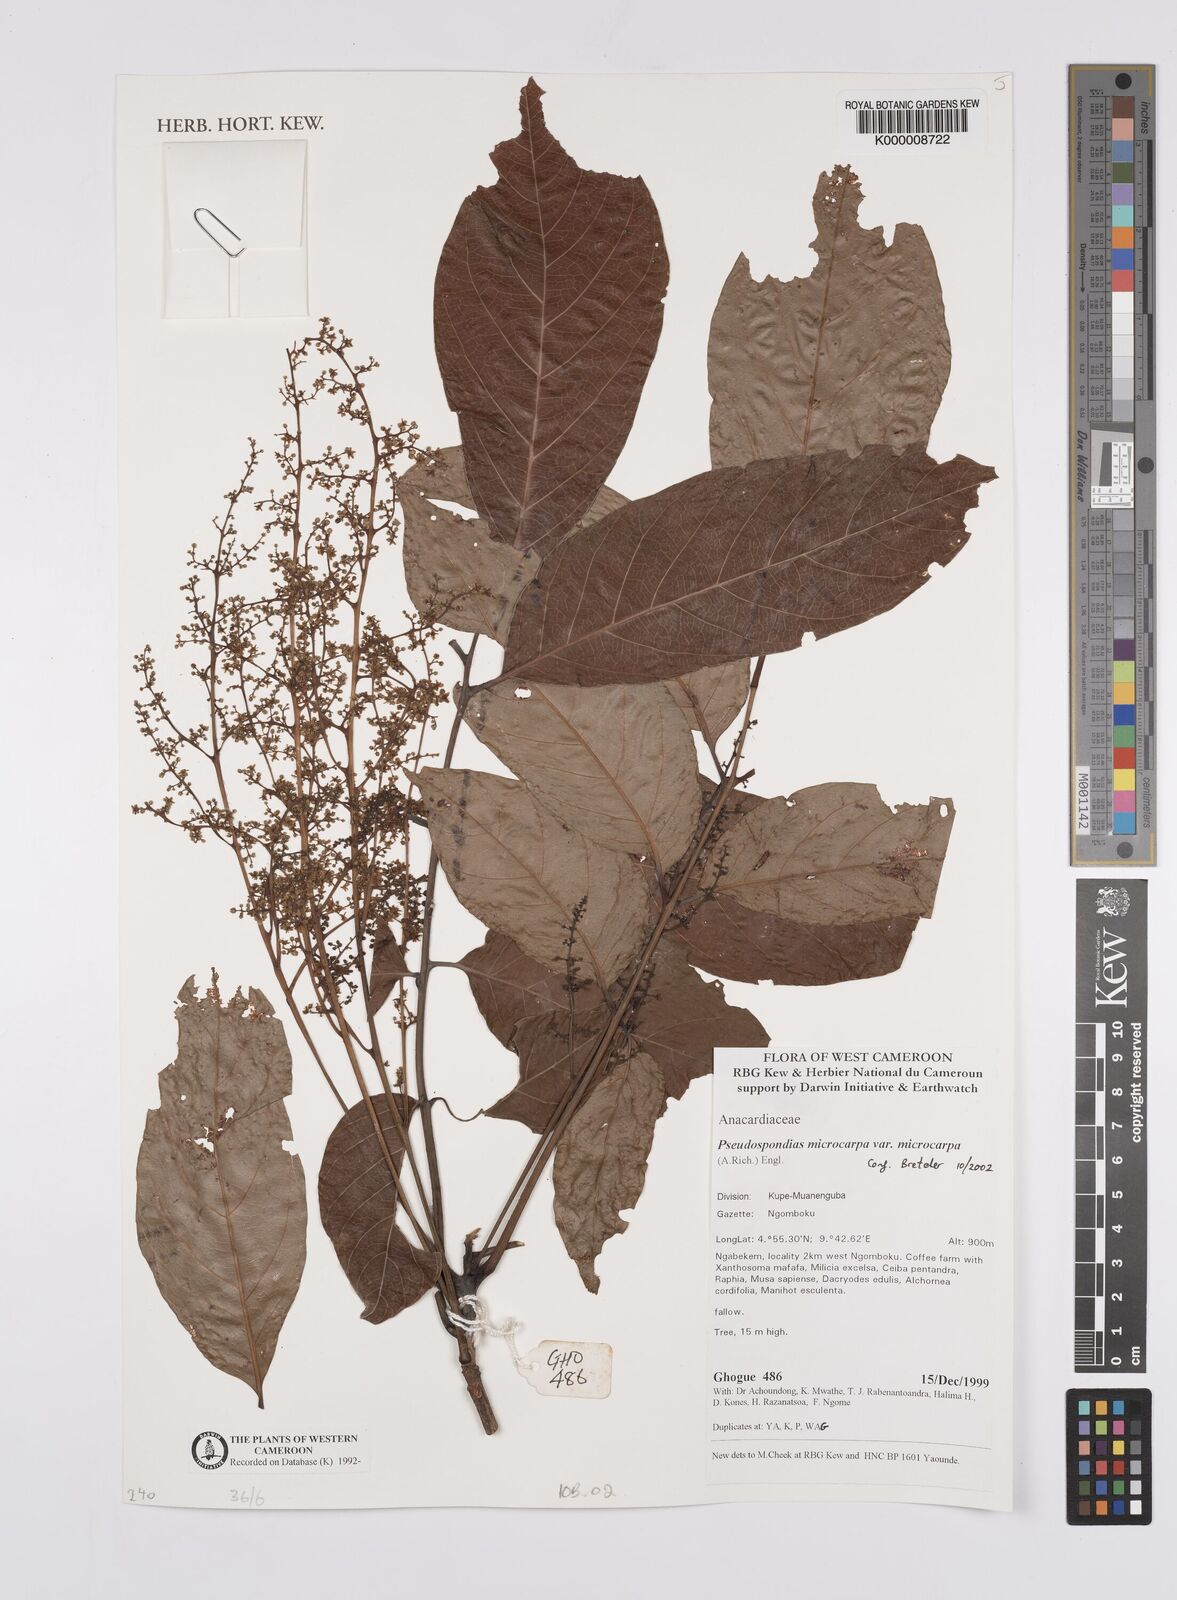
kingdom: Plantae
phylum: Tracheophyta
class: Magnoliopsida
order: Sapindales
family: Anacardiaceae
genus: Pseudospondias
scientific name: Pseudospondias microcarpa
